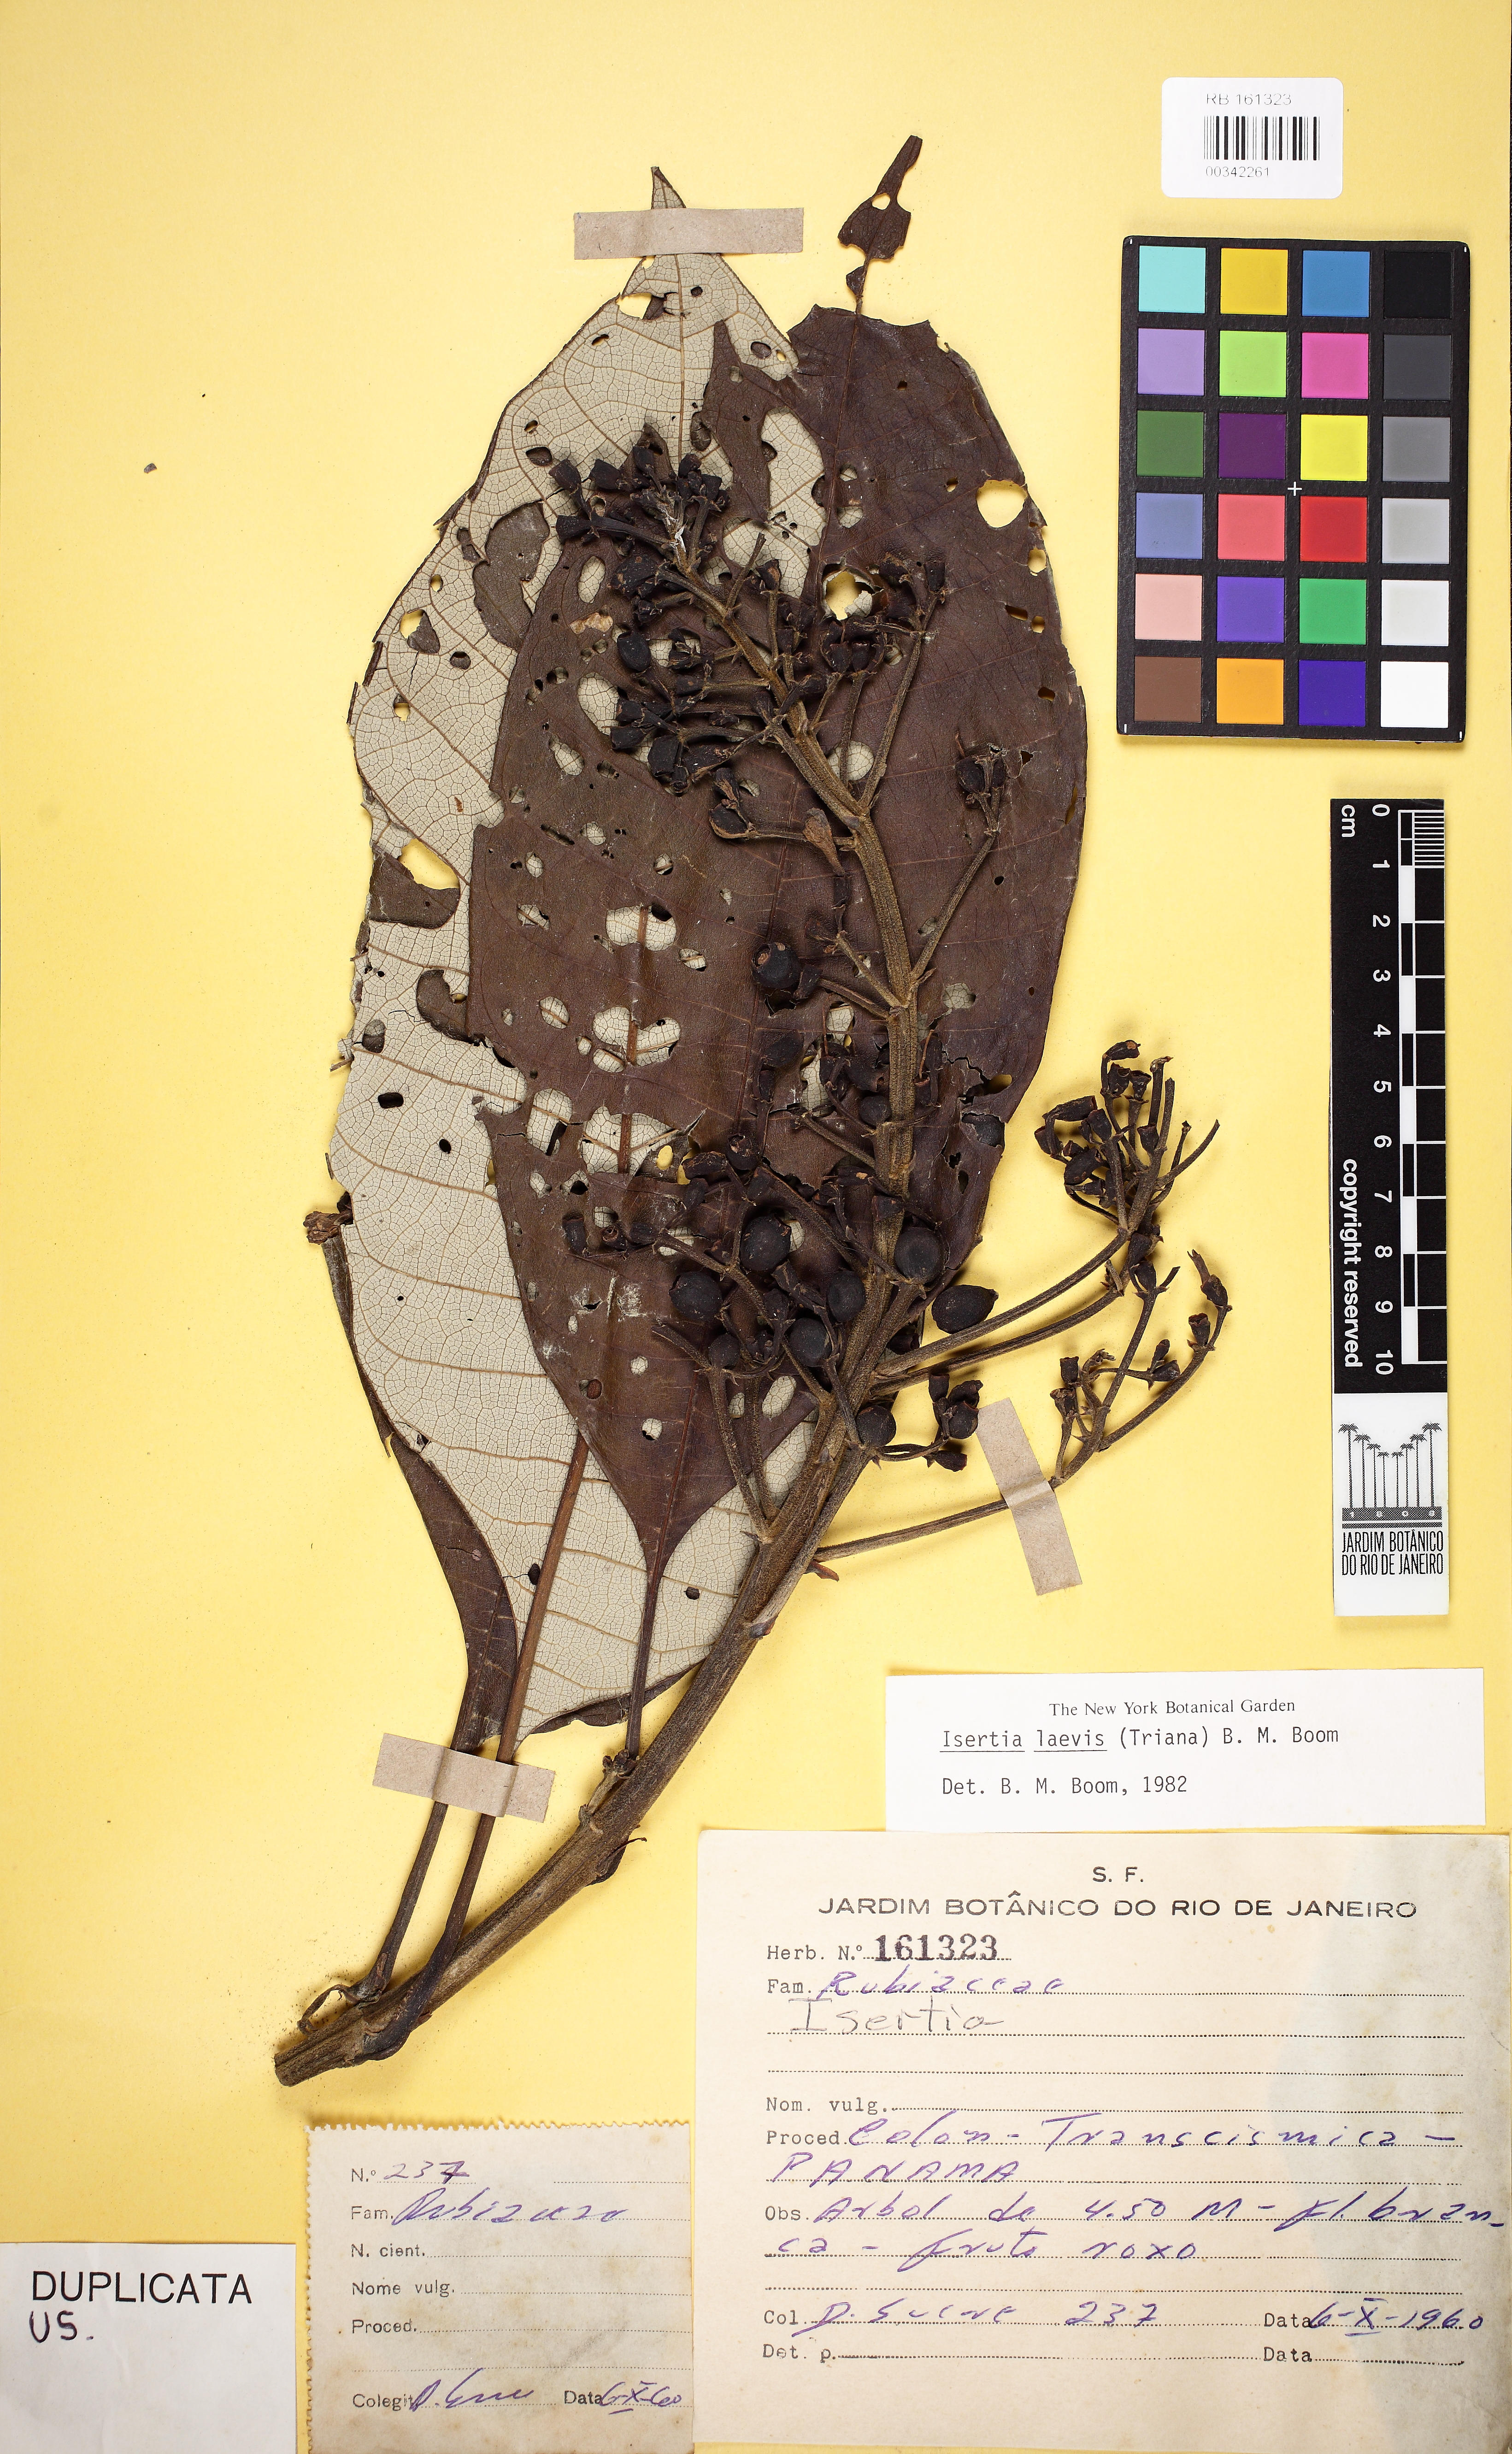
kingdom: Plantae
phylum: Tracheophyta
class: Magnoliopsida
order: Gentianales
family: Rubiaceae
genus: Isertia
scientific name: Isertia laevis
